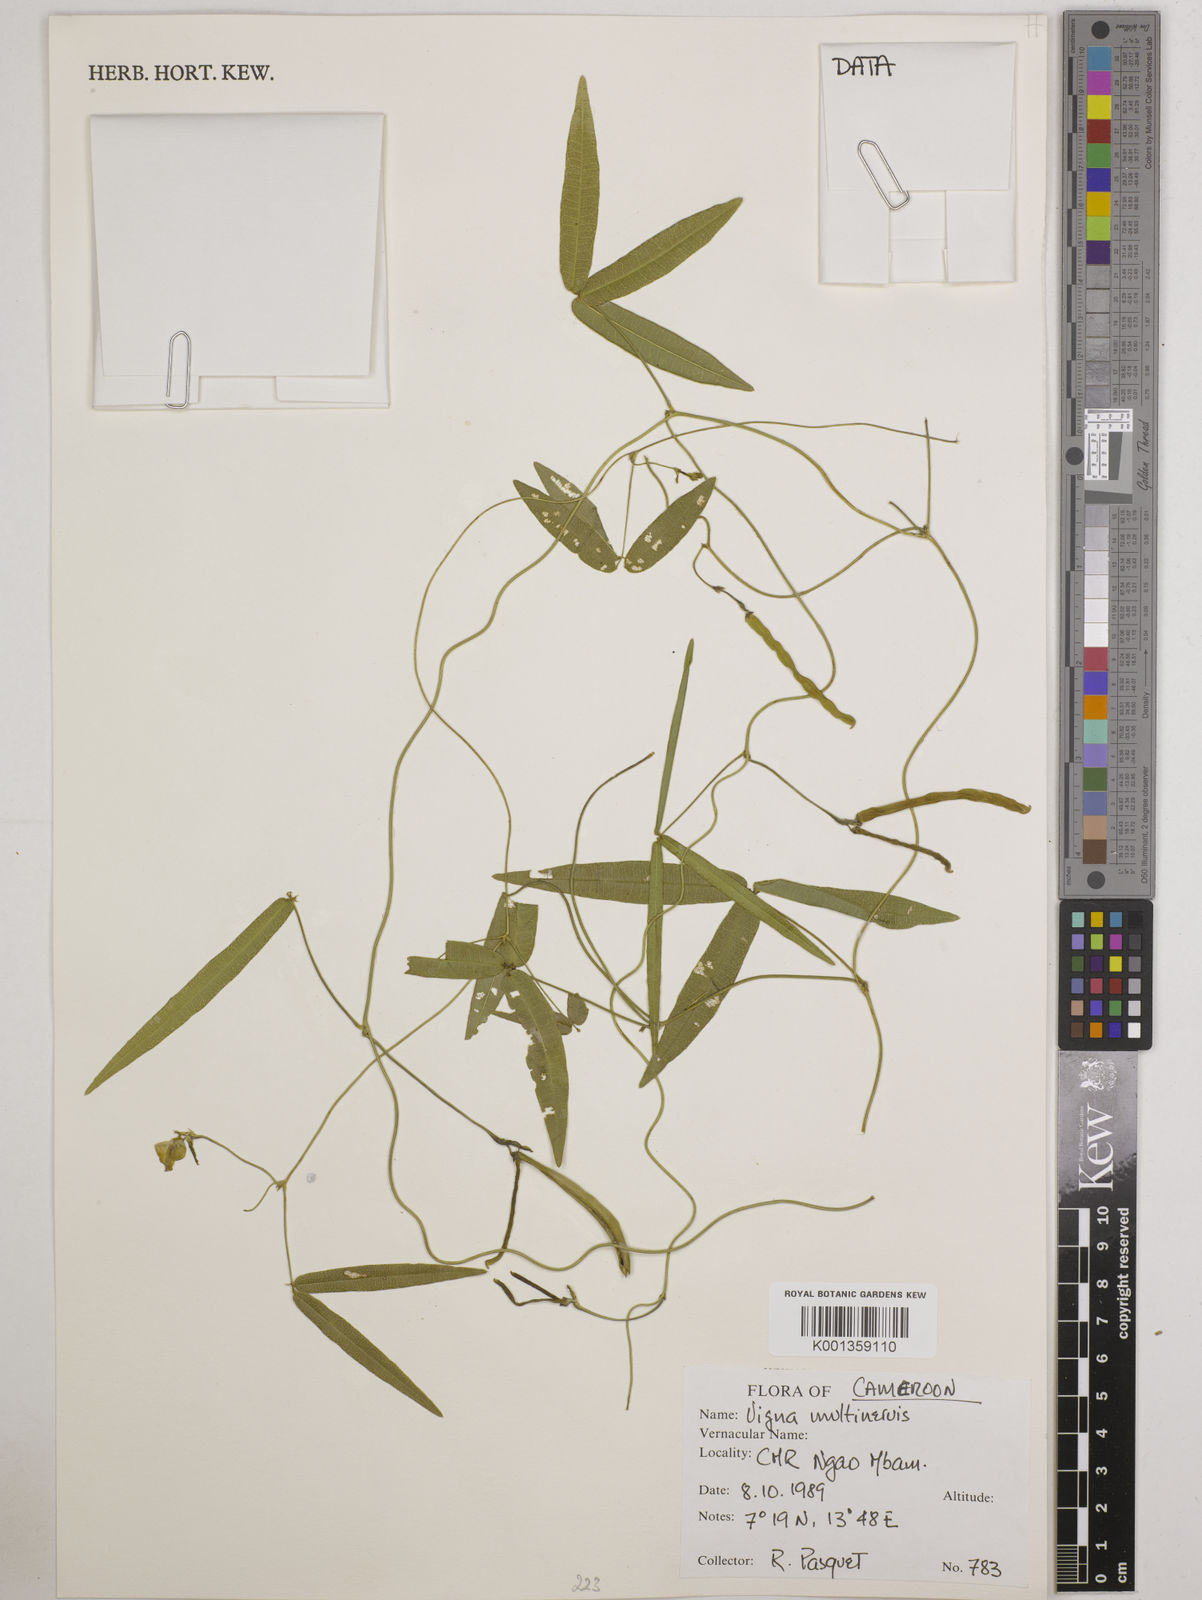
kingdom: Plantae
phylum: Tracheophyta
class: Magnoliopsida
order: Fabales
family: Fabaceae
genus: Vigna
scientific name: Vigna multinervis
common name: Fula-pulaar
